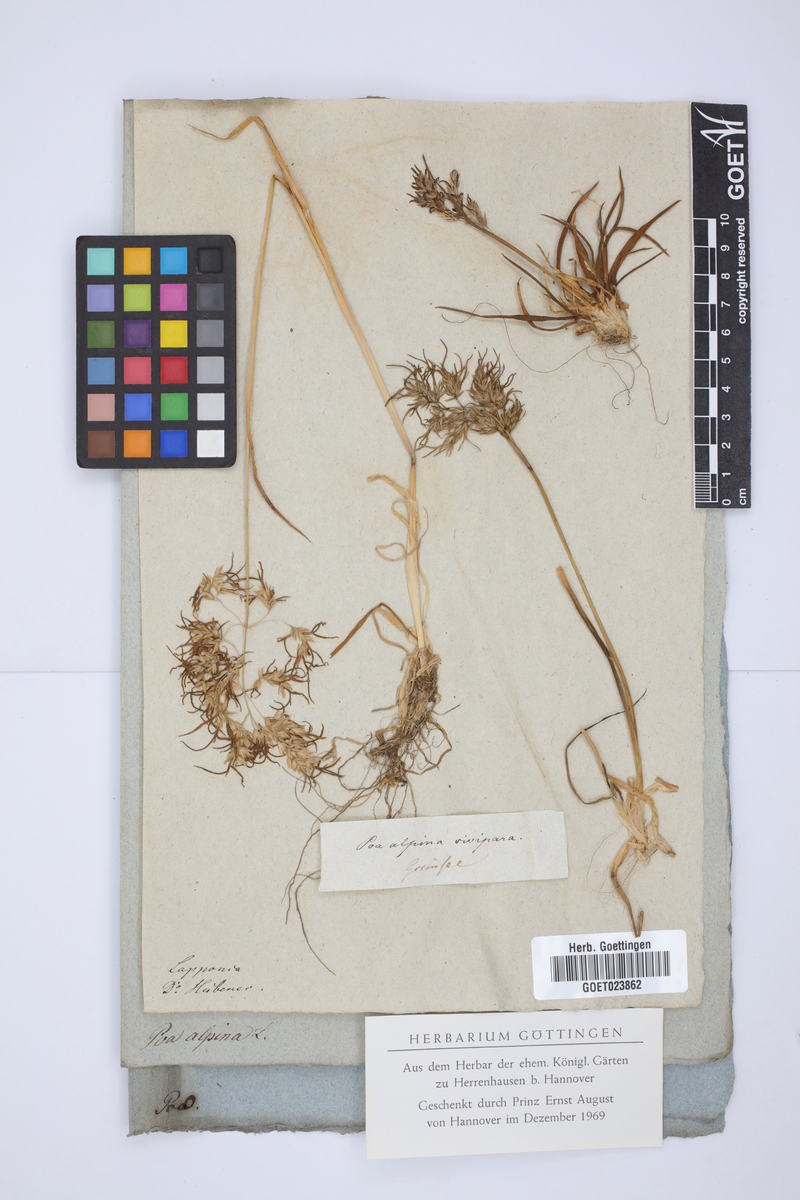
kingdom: Plantae
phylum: Tracheophyta
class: Liliopsida
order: Poales
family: Poaceae
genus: Poa
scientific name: Poa alpina
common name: Alpine bluegrass
